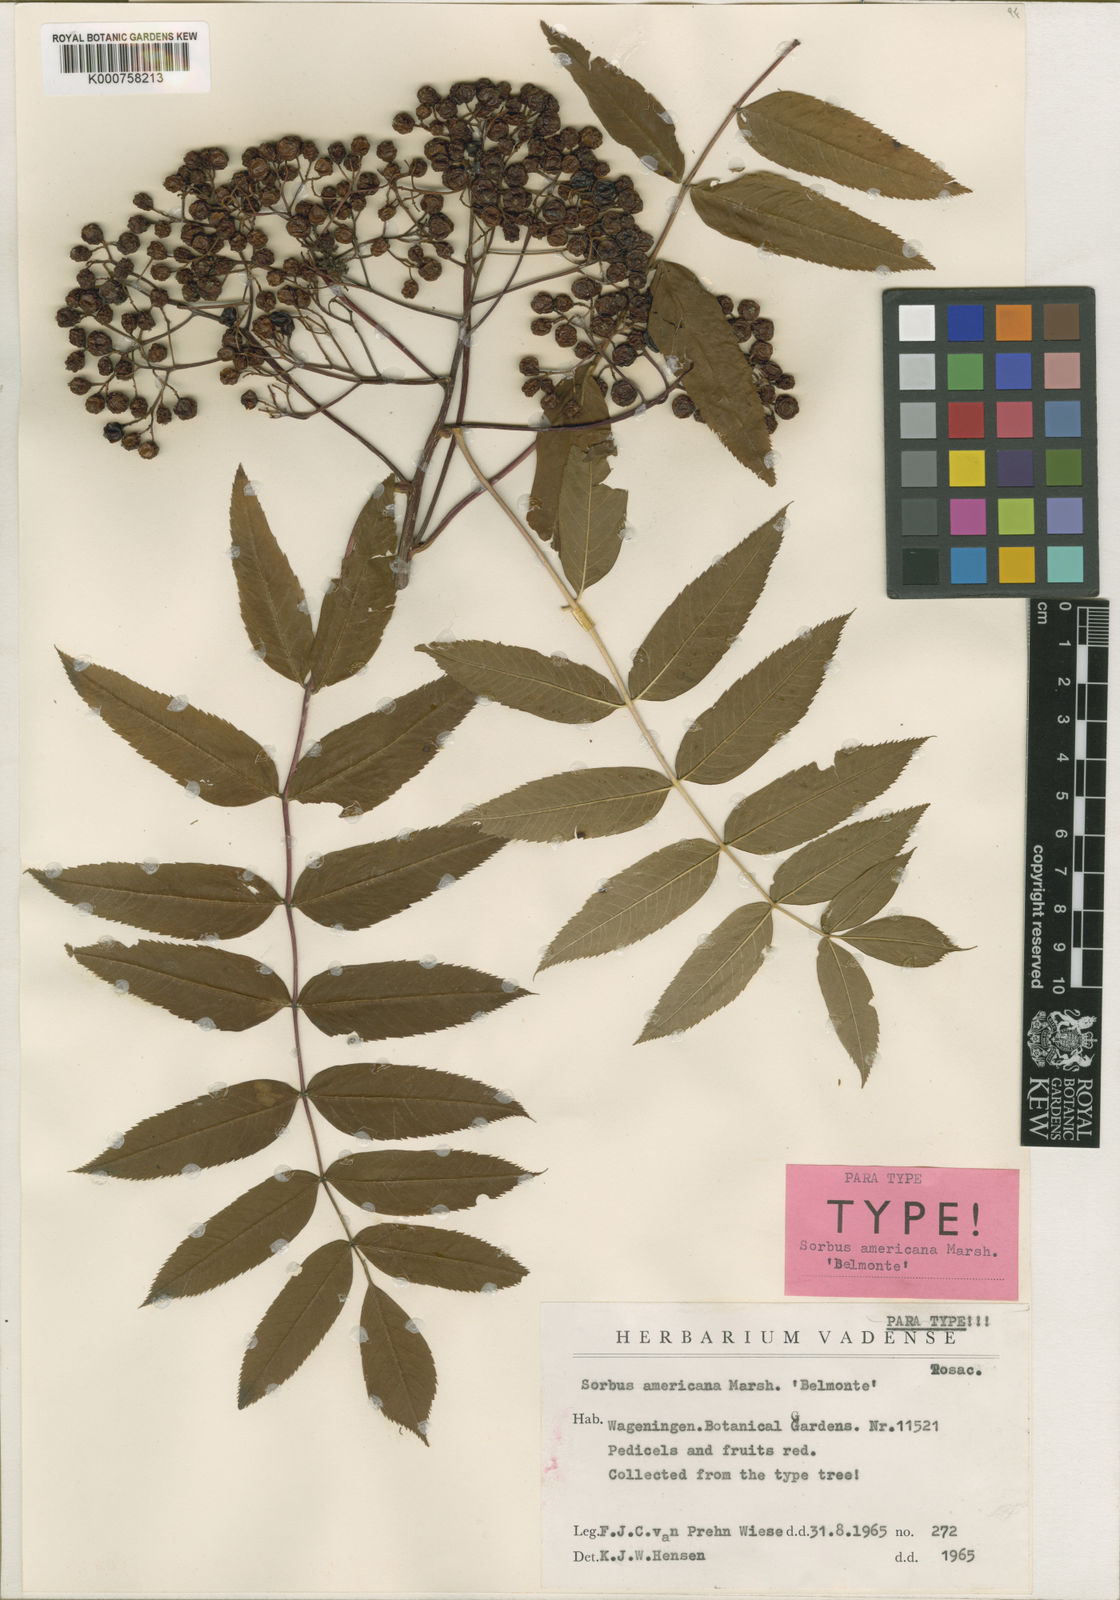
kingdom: Plantae
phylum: Tracheophyta
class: Magnoliopsida
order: Rosales
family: Rosaceae
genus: Sorbus
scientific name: Sorbus americana
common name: American mountain-ash
